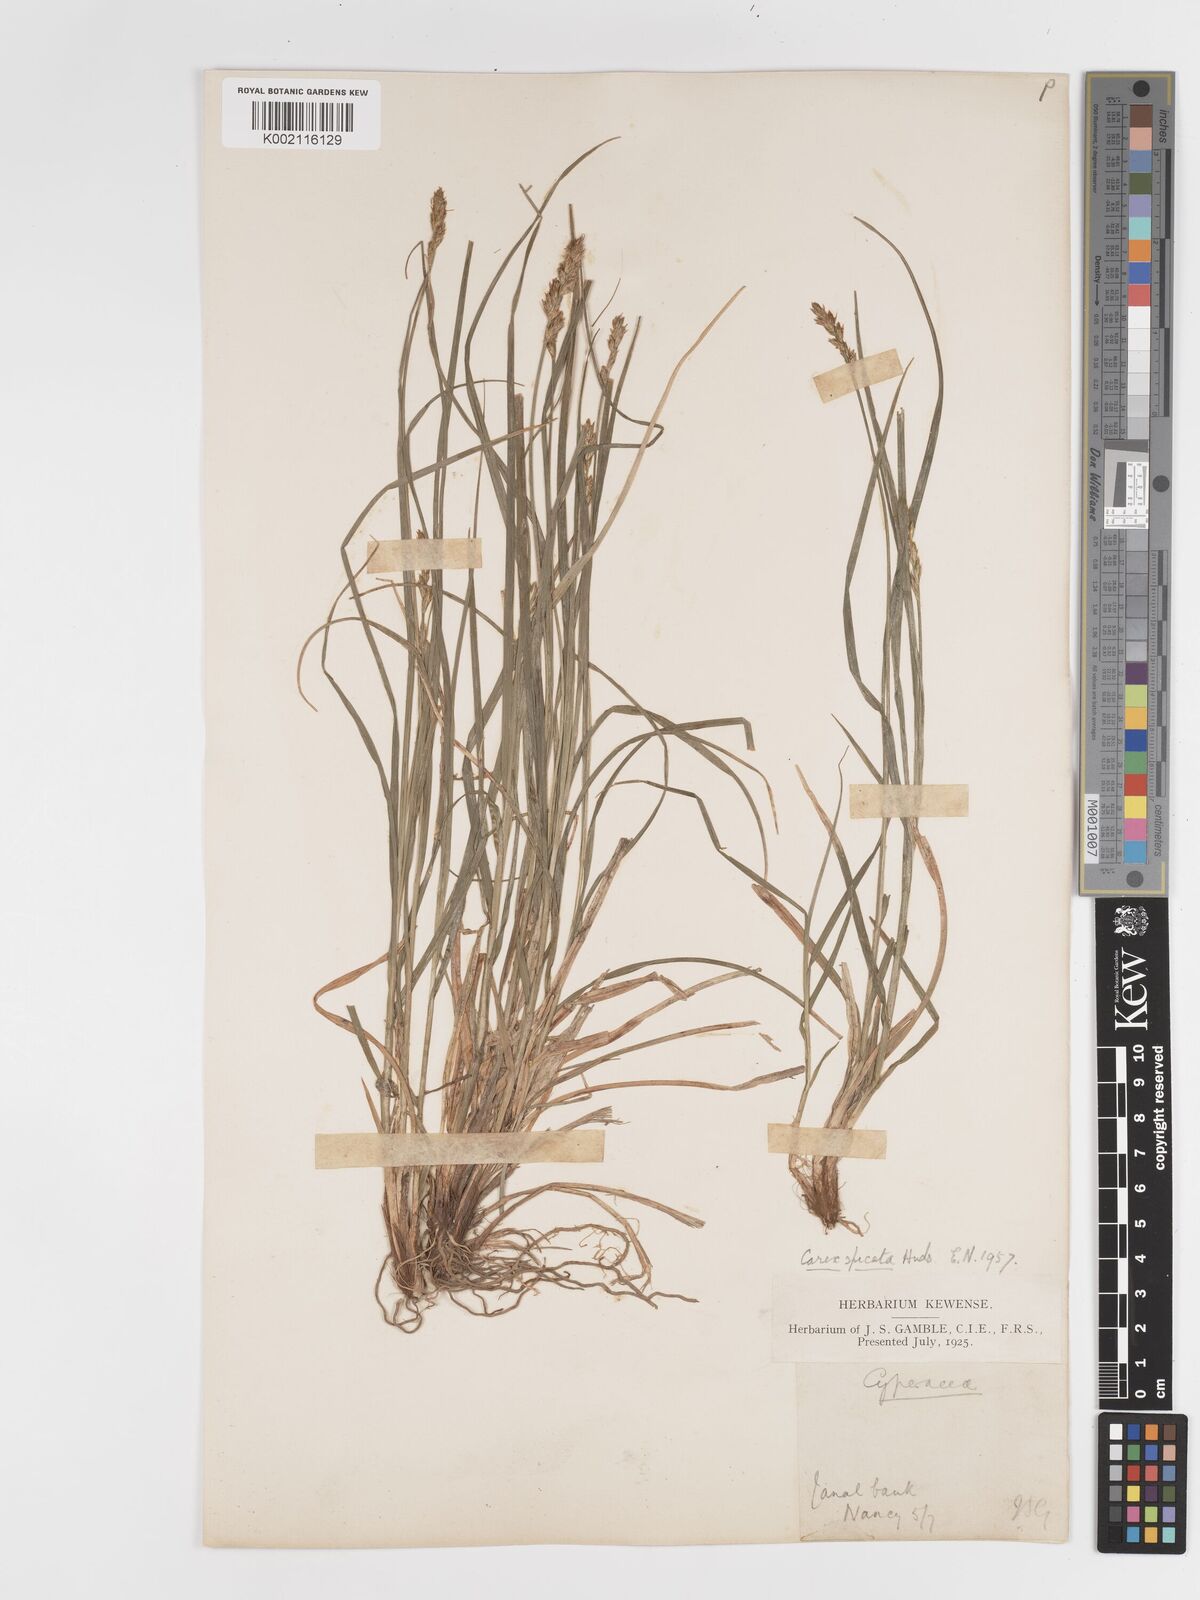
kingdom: Plantae
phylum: Tracheophyta
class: Liliopsida
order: Poales
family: Cyperaceae
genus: Carex
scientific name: Carex spicata
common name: Spiked sedge
